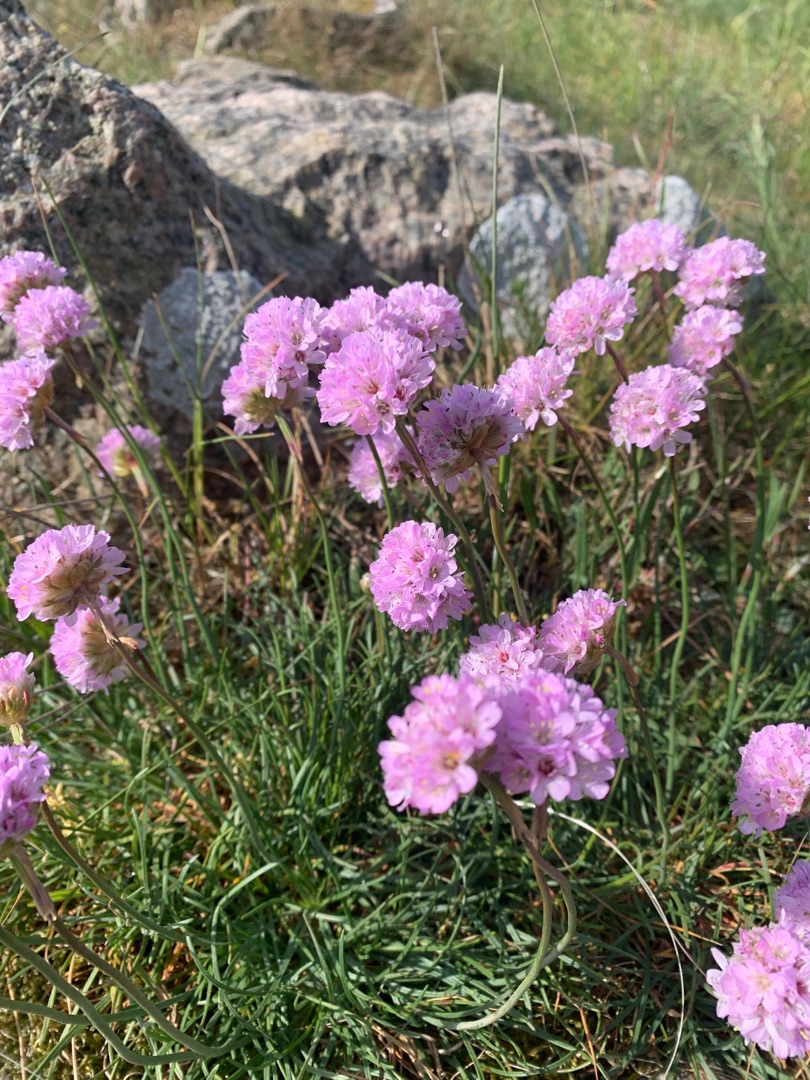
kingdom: Plantae
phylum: Tracheophyta
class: Magnoliopsida
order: Caryophyllales
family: Plumbaginaceae
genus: Armeria
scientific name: Armeria maritima
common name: Engelskgræs
